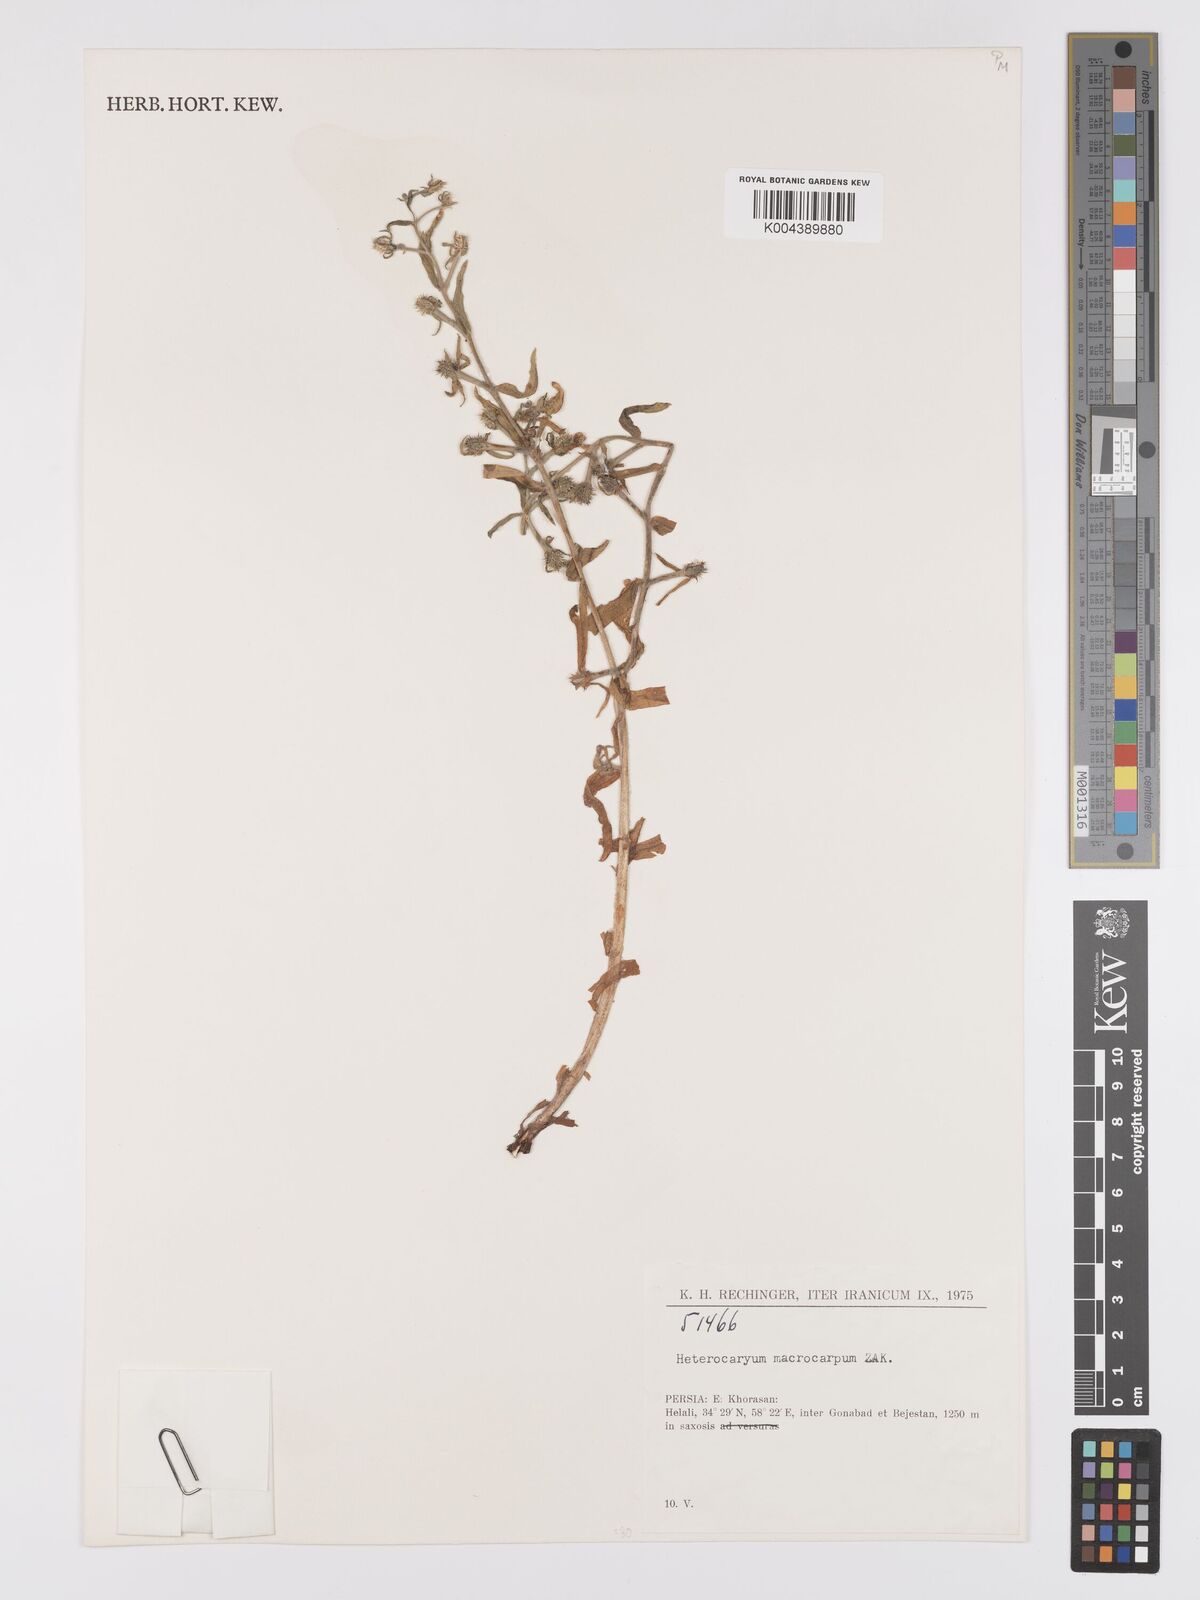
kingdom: Plantae
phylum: Tracheophyta
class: Magnoliopsida
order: Boraginales
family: Boraginaceae
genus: Lappula
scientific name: Lappula
